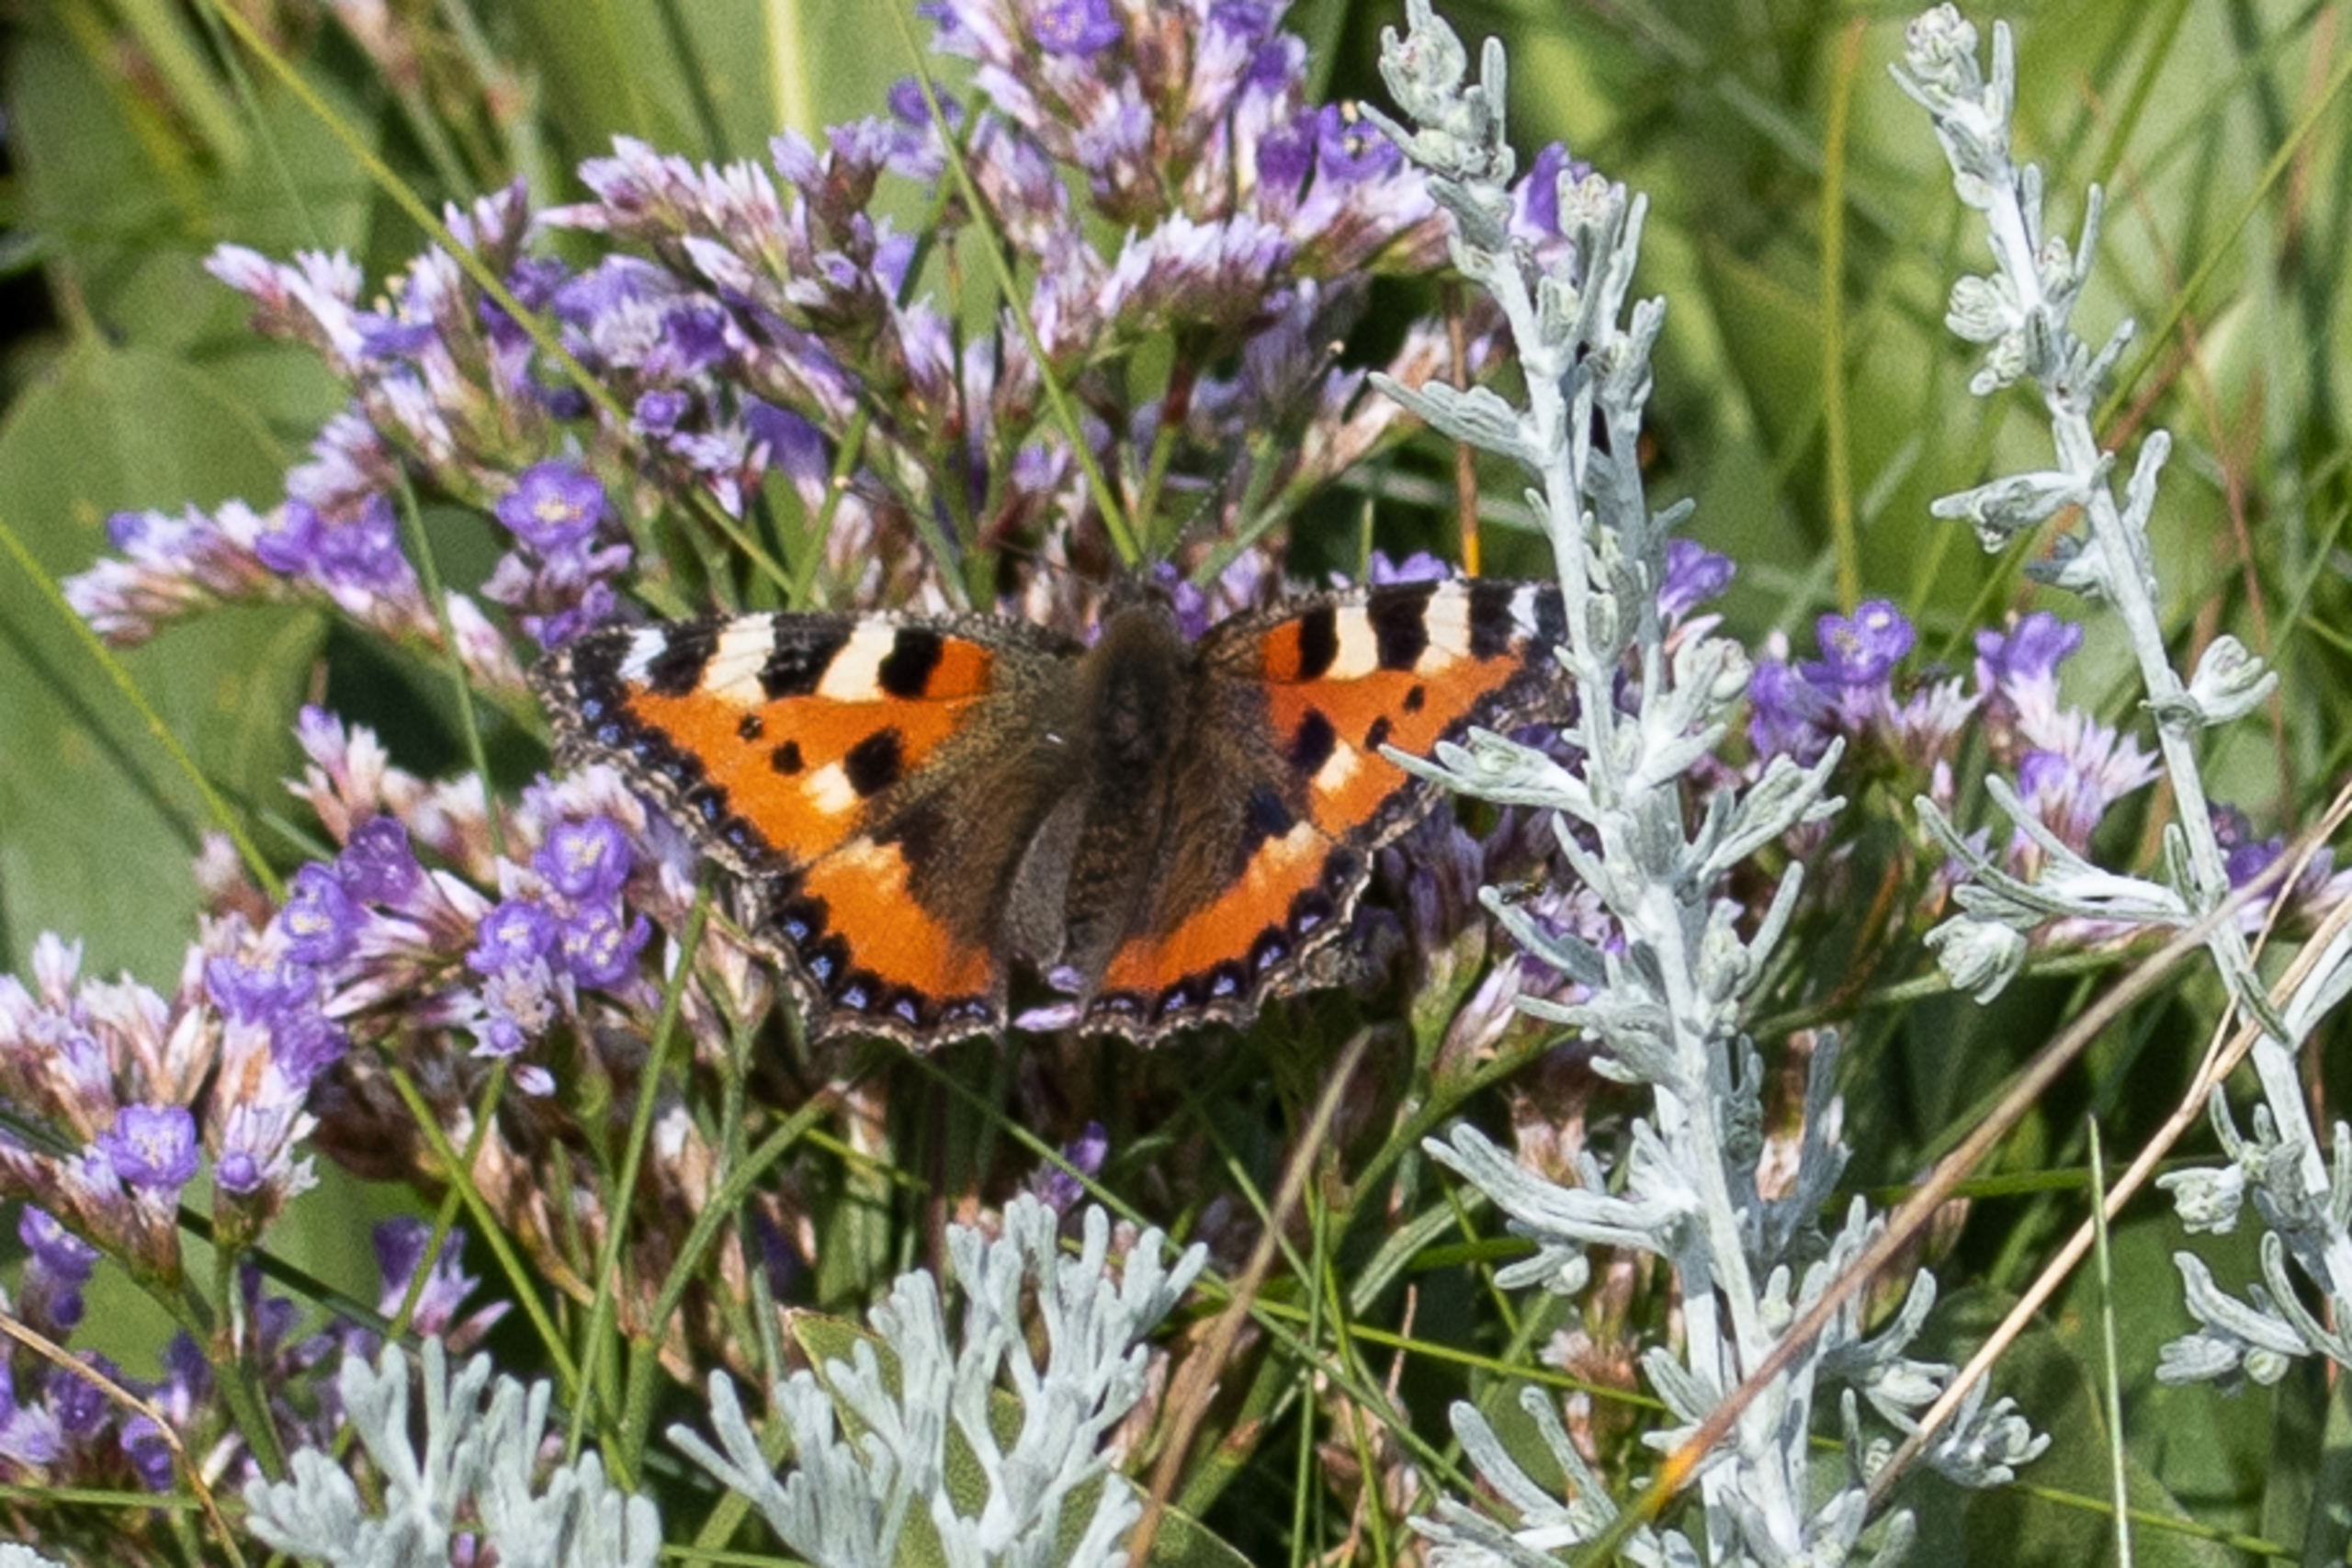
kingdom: Animalia
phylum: Arthropoda
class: Insecta
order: Lepidoptera
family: Nymphalidae
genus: Aglais
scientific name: Aglais urticae
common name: Nældens takvinge
